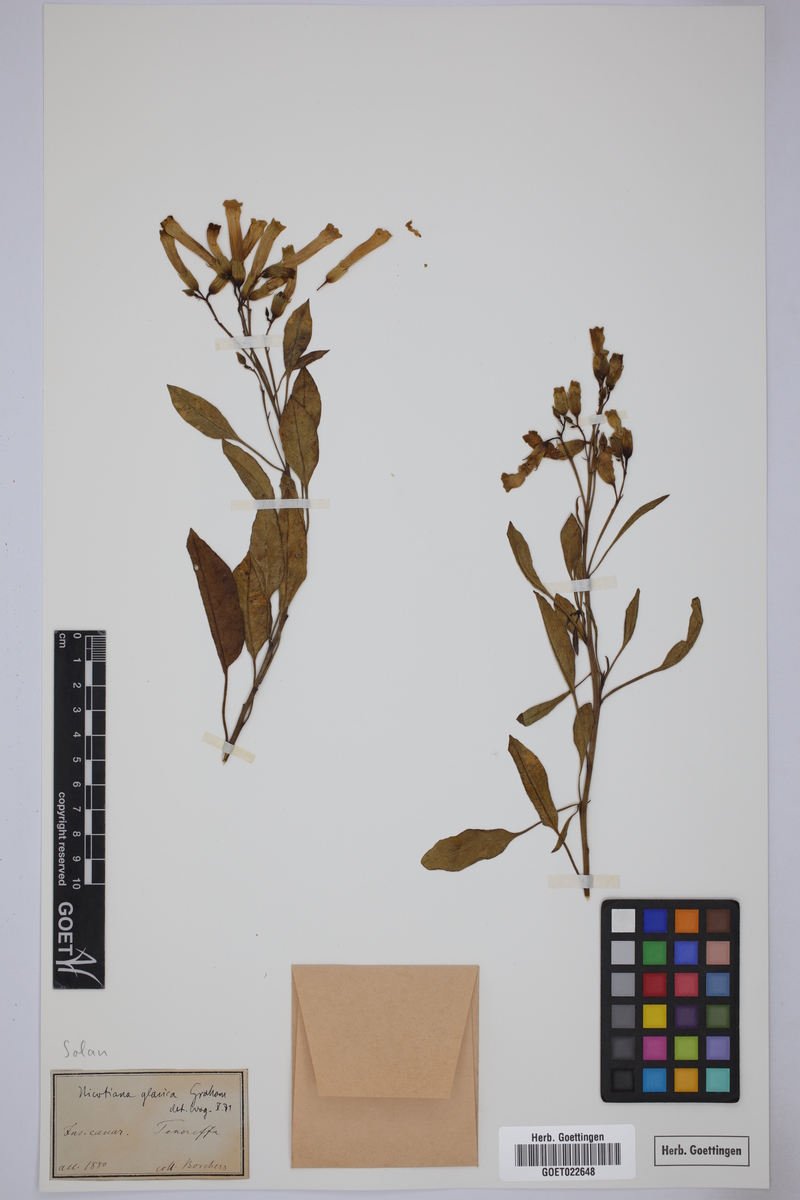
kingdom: Plantae
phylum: Tracheophyta
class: Magnoliopsida
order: Solanales
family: Solanaceae
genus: Nicotiana
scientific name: Nicotiana glauca
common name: Tree tobacco
